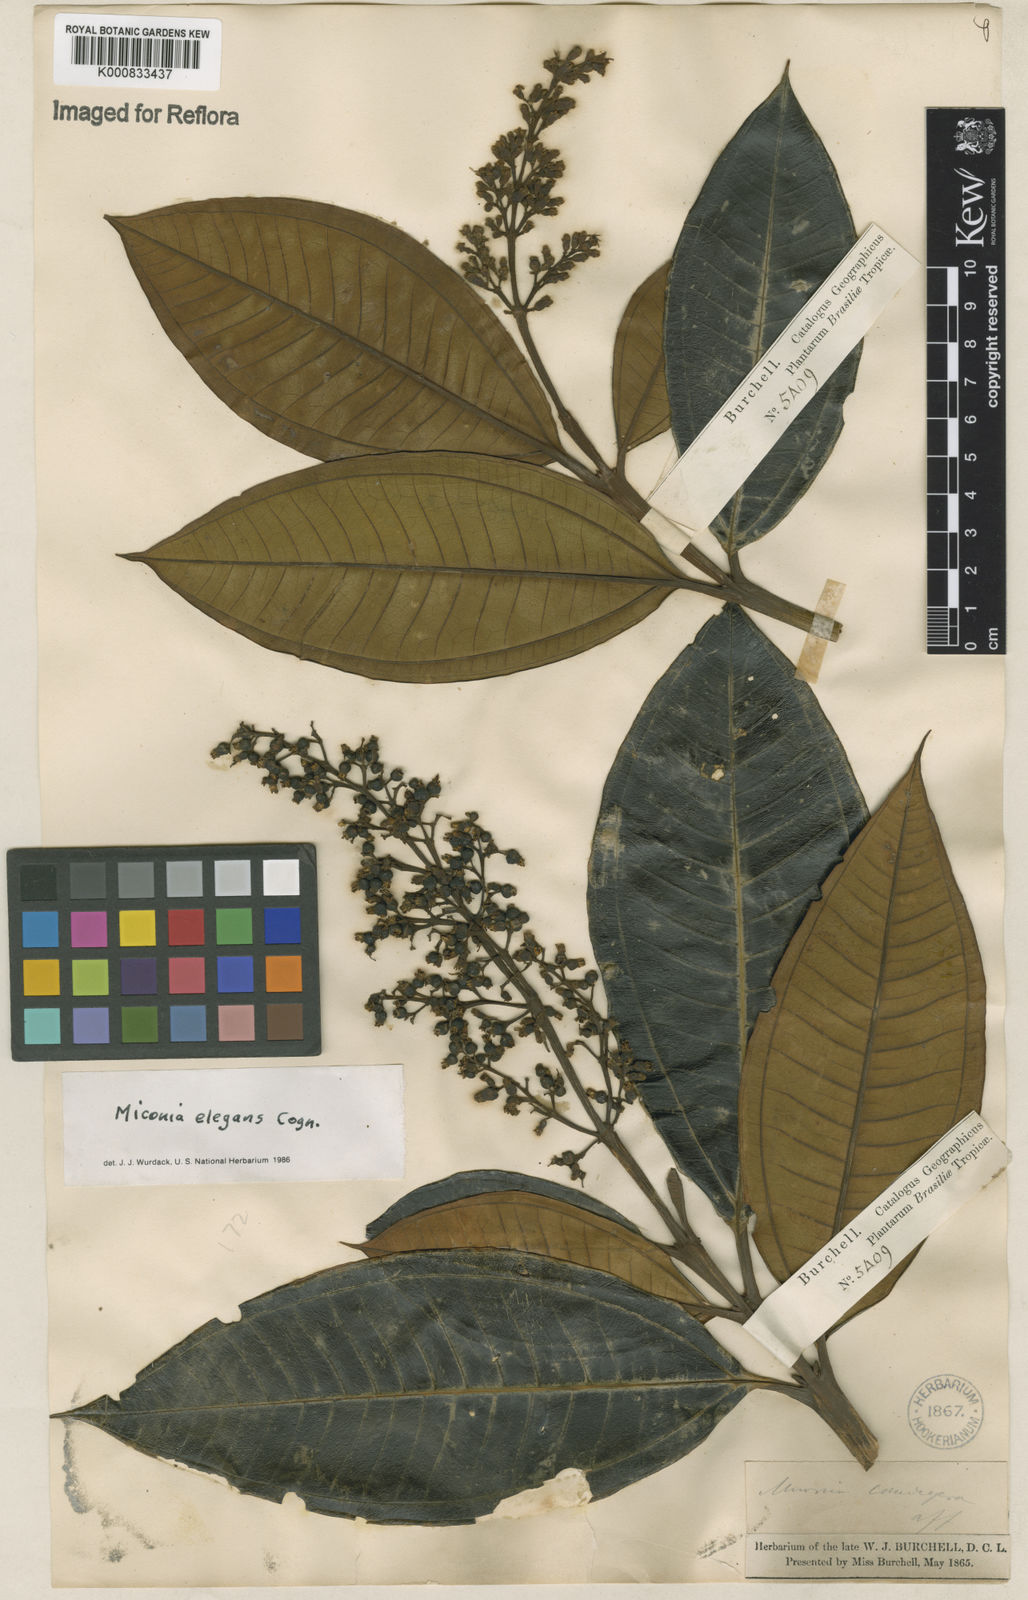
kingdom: Plantae
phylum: Tracheophyta
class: Magnoliopsida
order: Myrtales
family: Melastomataceae
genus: Miconia
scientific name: Miconia elegans
